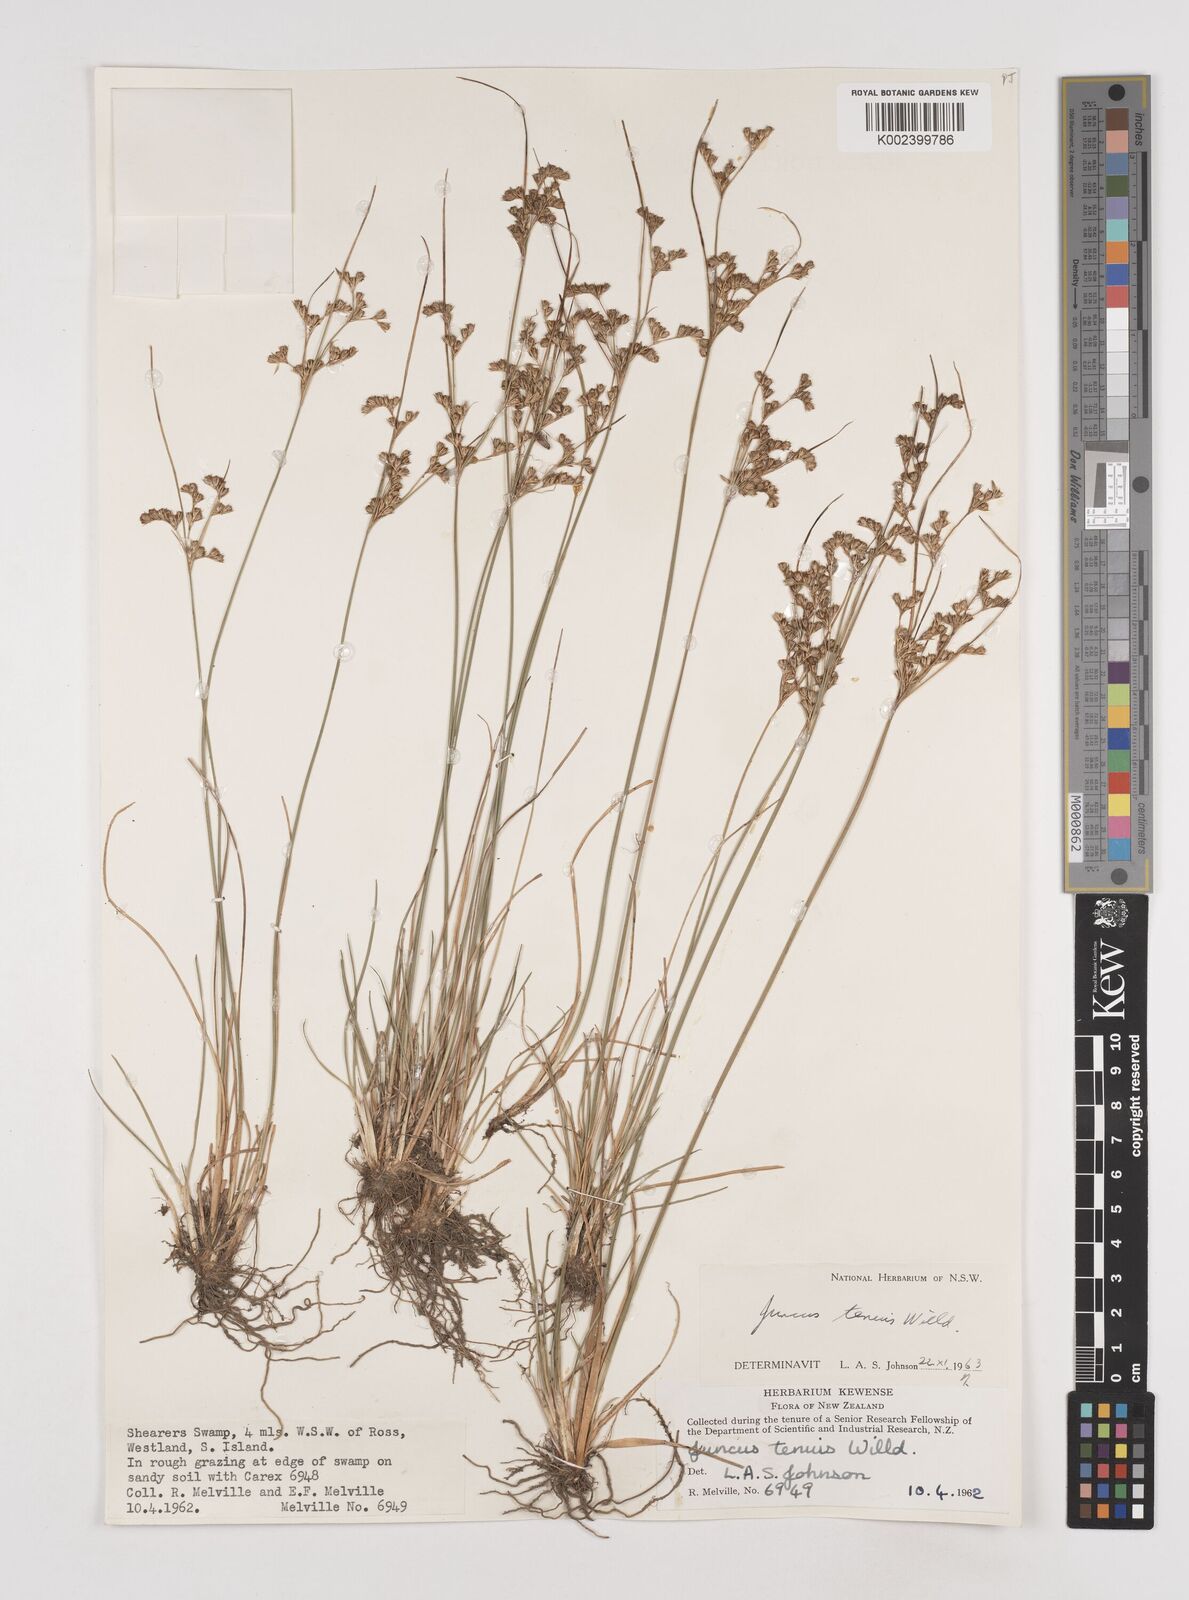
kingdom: Plantae
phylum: Tracheophyta
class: Liliopsida
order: Poales
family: Juncaceae
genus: Juncus
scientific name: Juncus tenuis
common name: Slender rush
